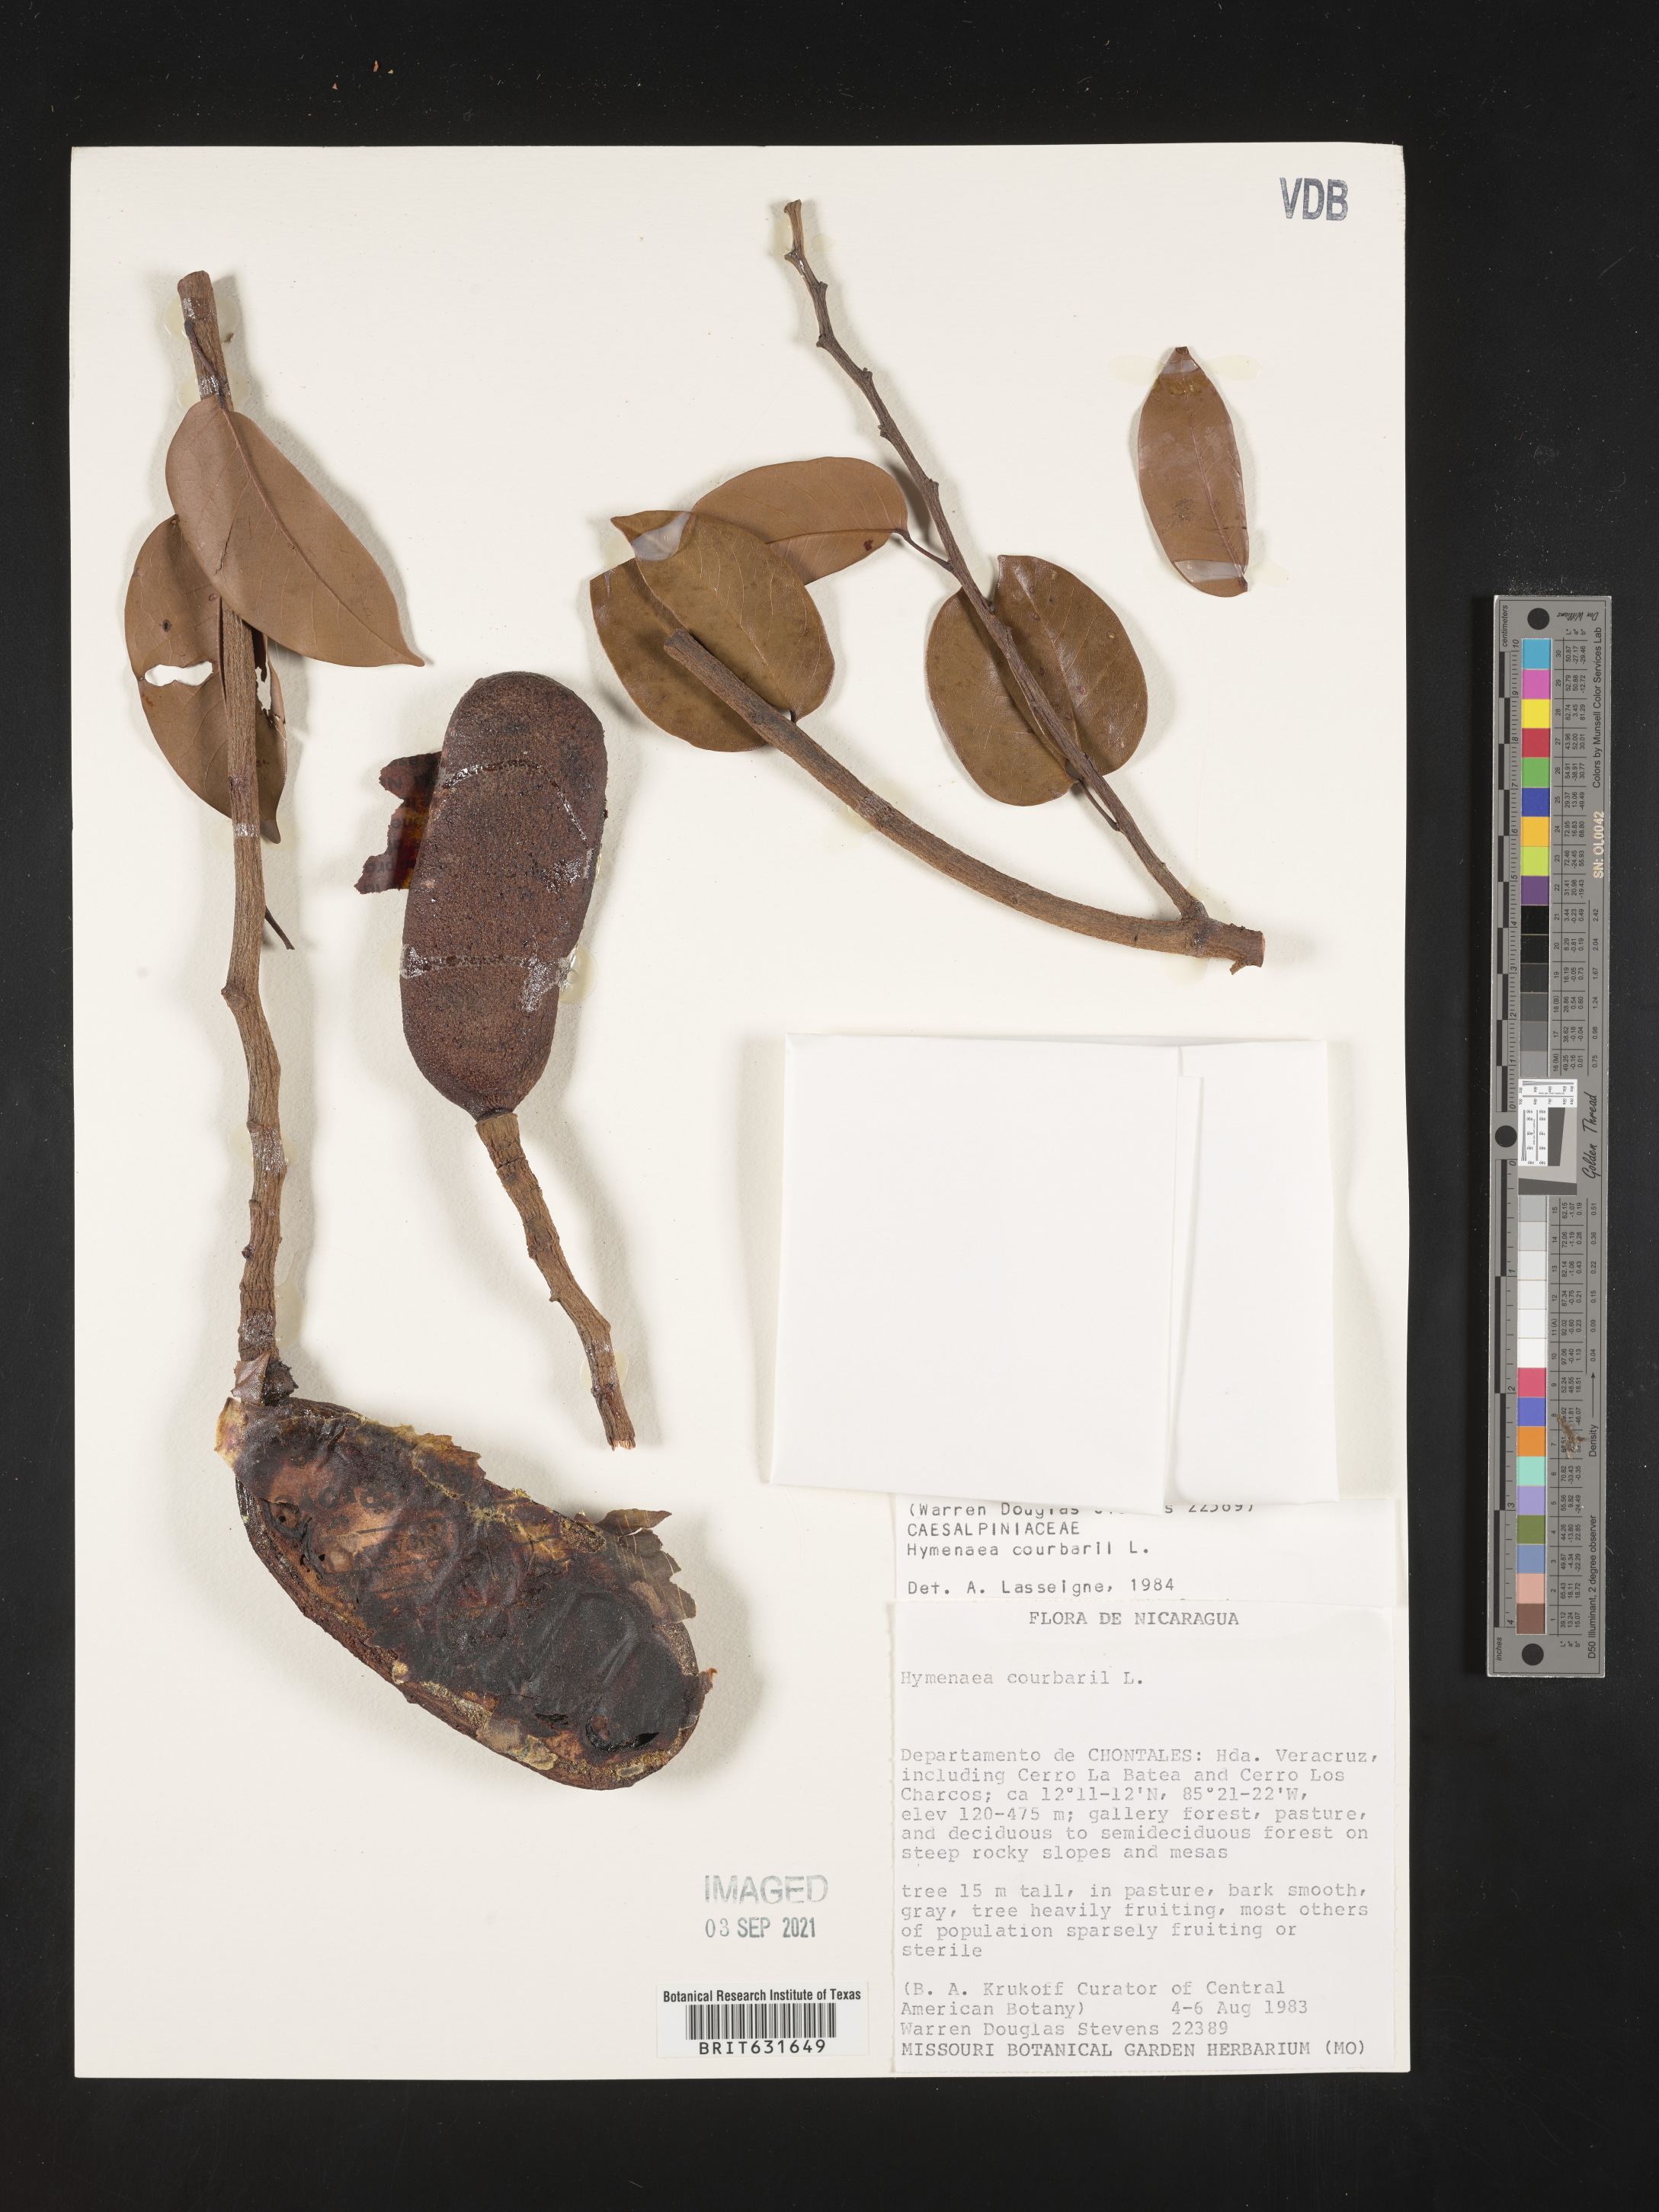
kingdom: Plantae
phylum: Tracheophyta
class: Magnoliopsida
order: Fabales
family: Fabaceae
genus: Hymenaea
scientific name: Hymenaea
